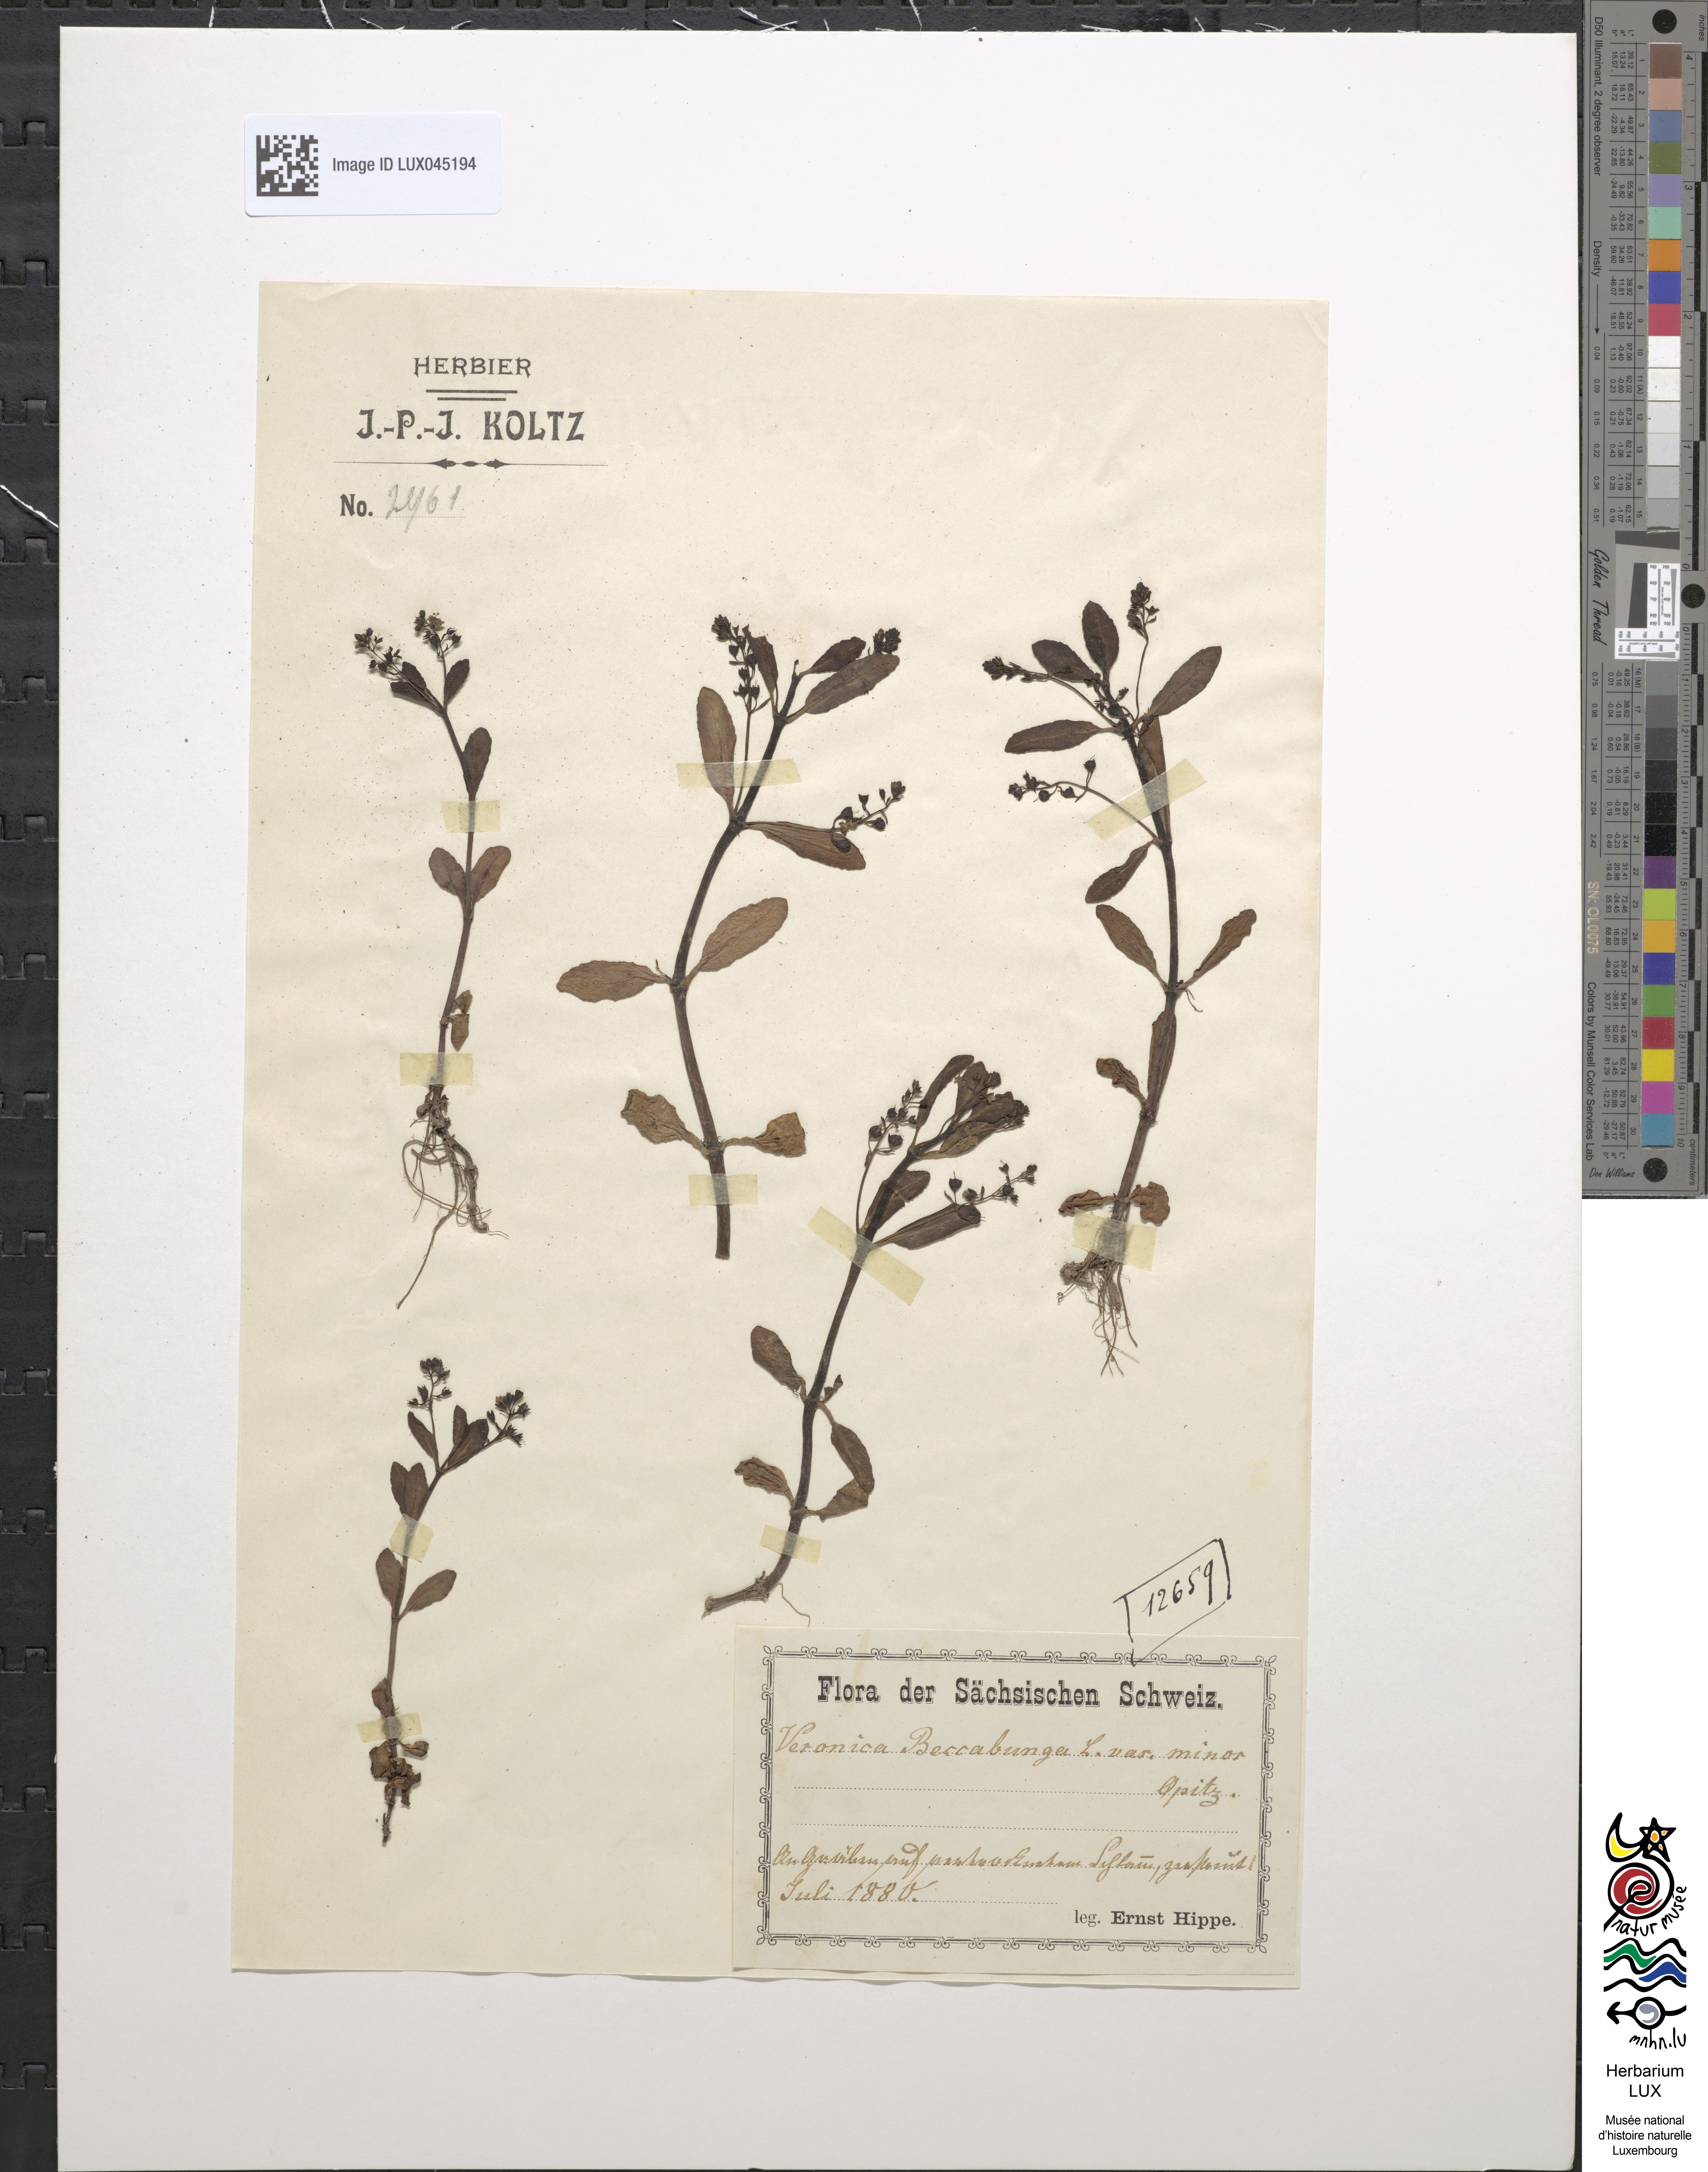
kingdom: Plantae
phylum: Tracheophyta
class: Magnoliopsida
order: Lamiales
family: Plantaginaceae
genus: Veronica
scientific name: Veronica beccabunga
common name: Brooklime
